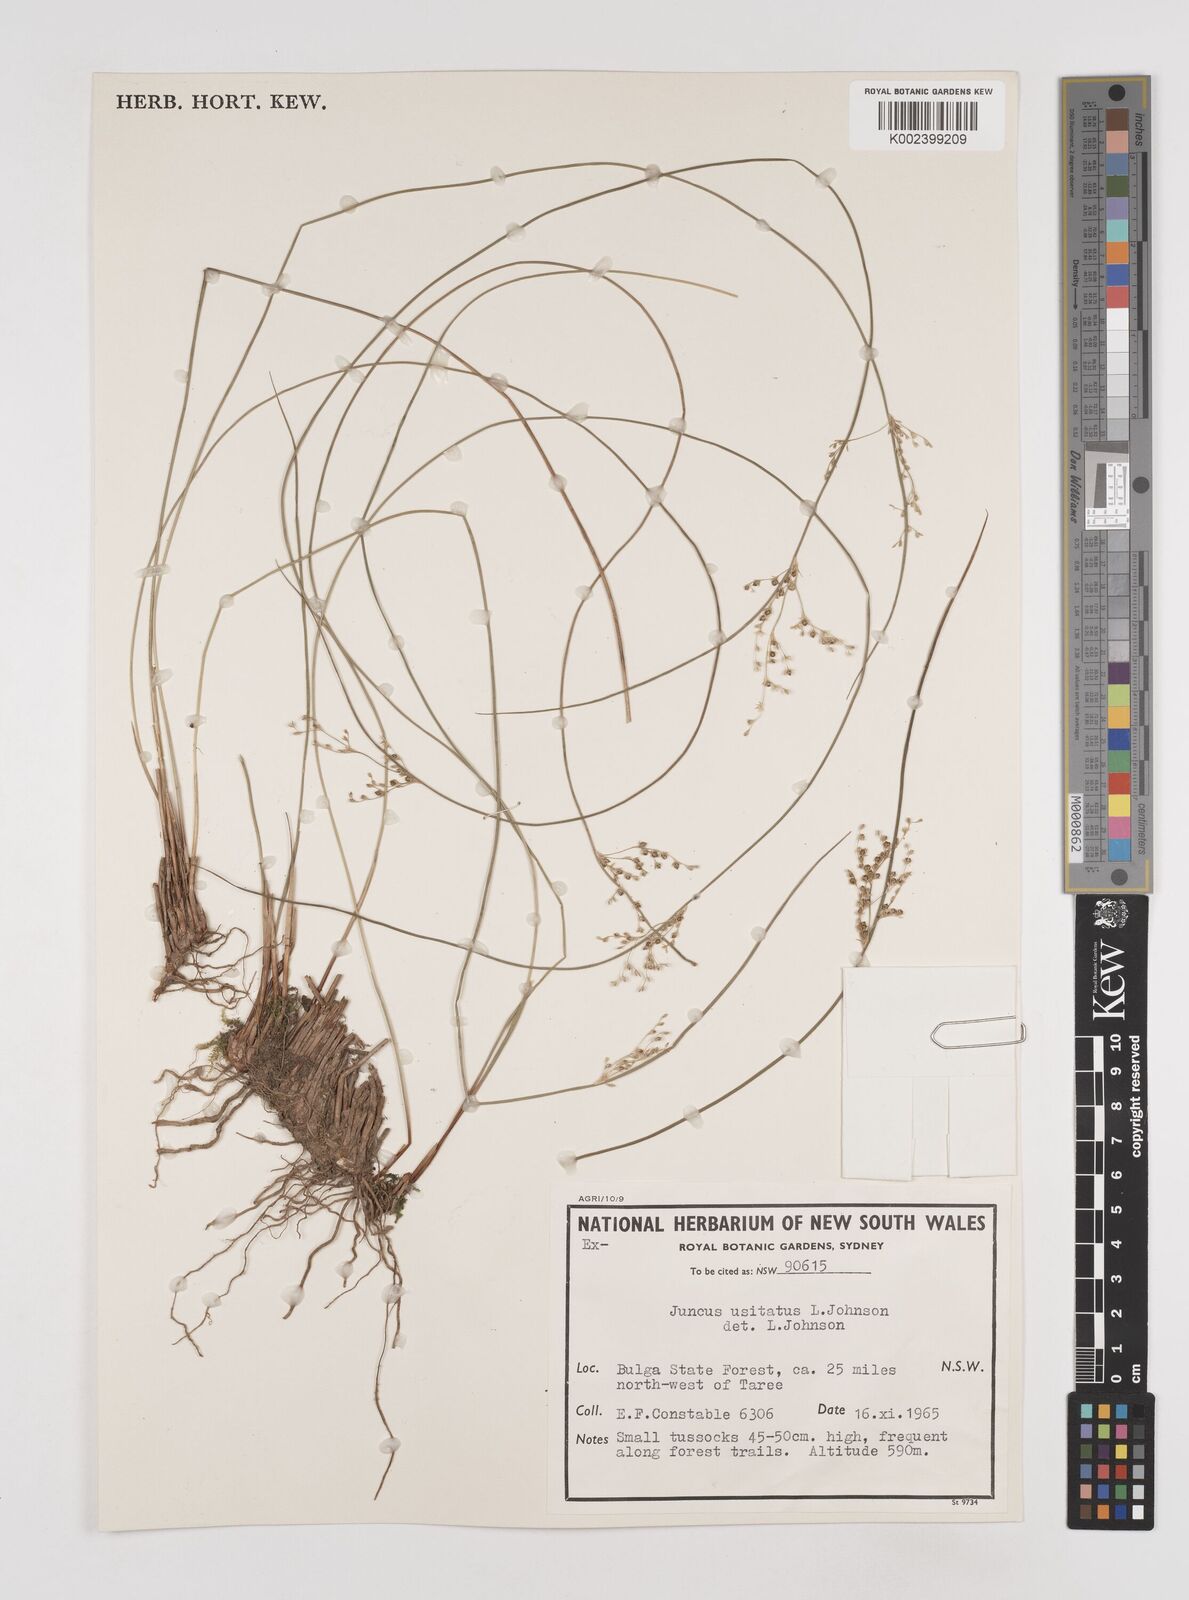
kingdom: Plantae
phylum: Tracheophyta
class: Liliopsida
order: Poales
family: Juncaceae
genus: Juncus
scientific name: Juncus usitatus
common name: Rush
